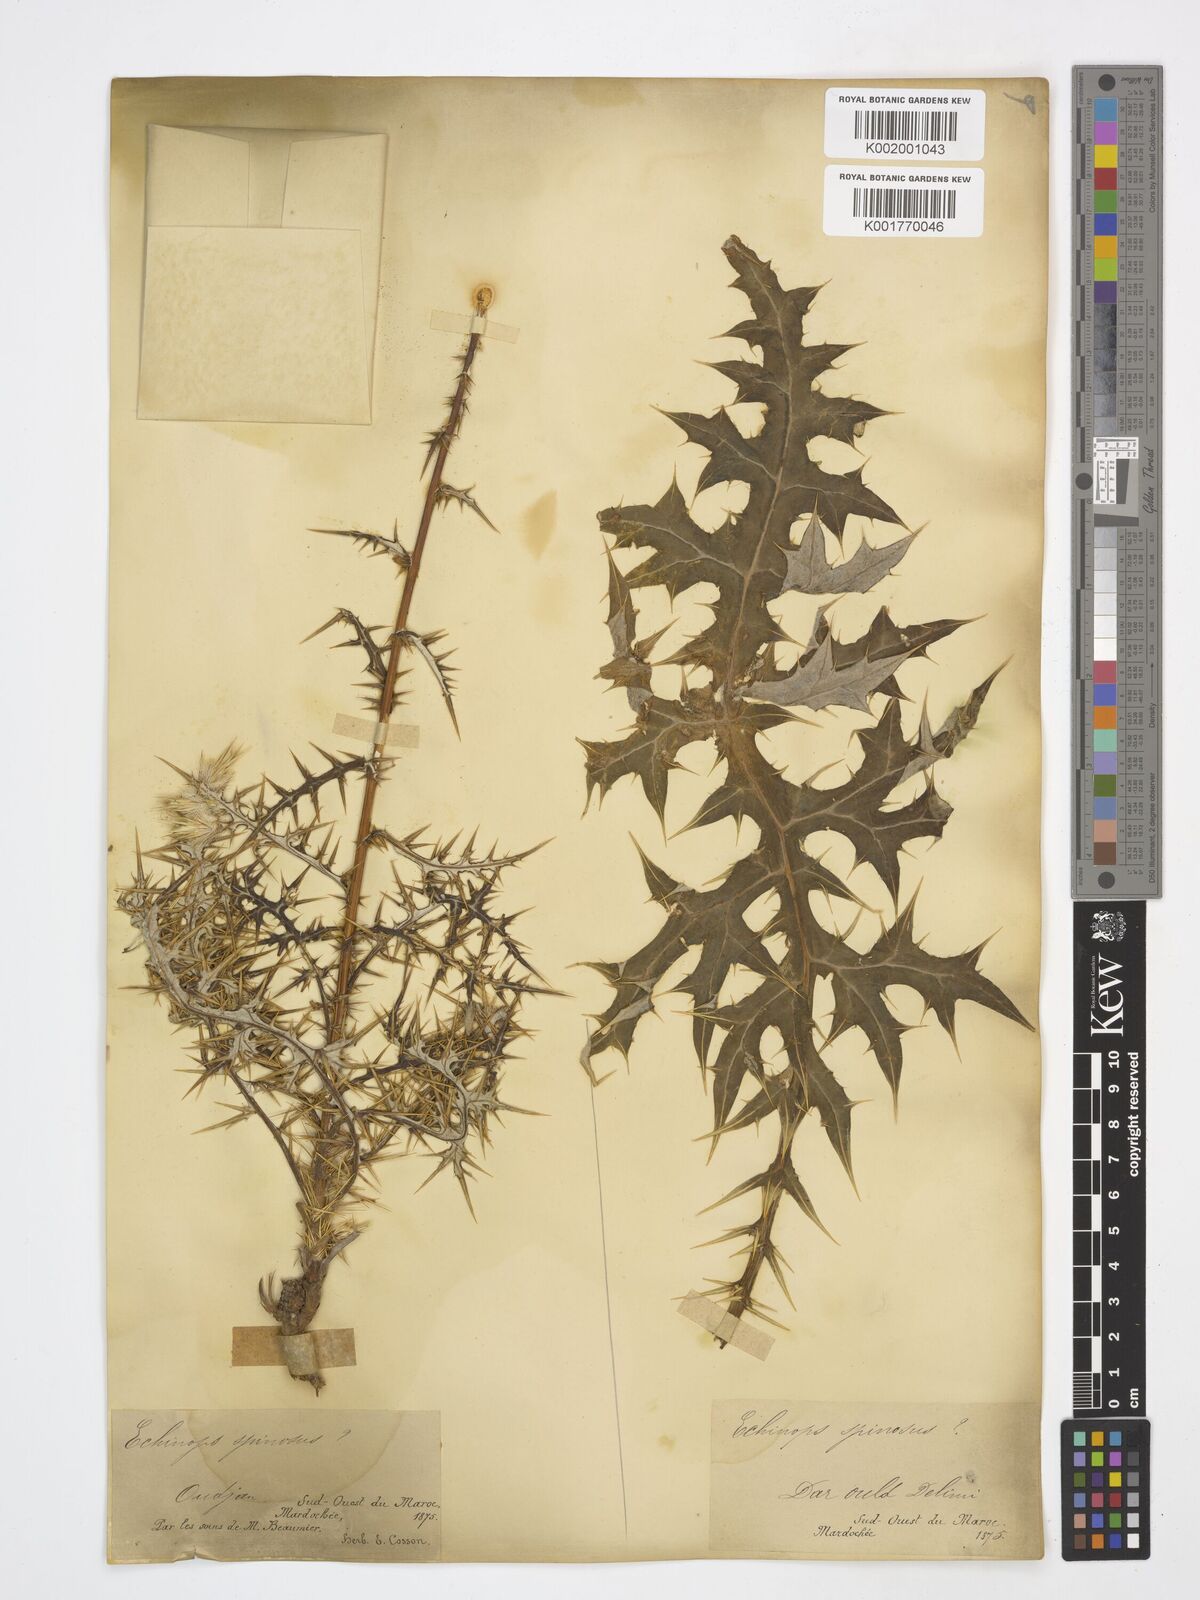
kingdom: Plantae
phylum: Tracheophyta
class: Magnoliopsida
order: Asterales
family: Asteraceae
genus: Echinops
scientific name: Echinops spinosissimus
